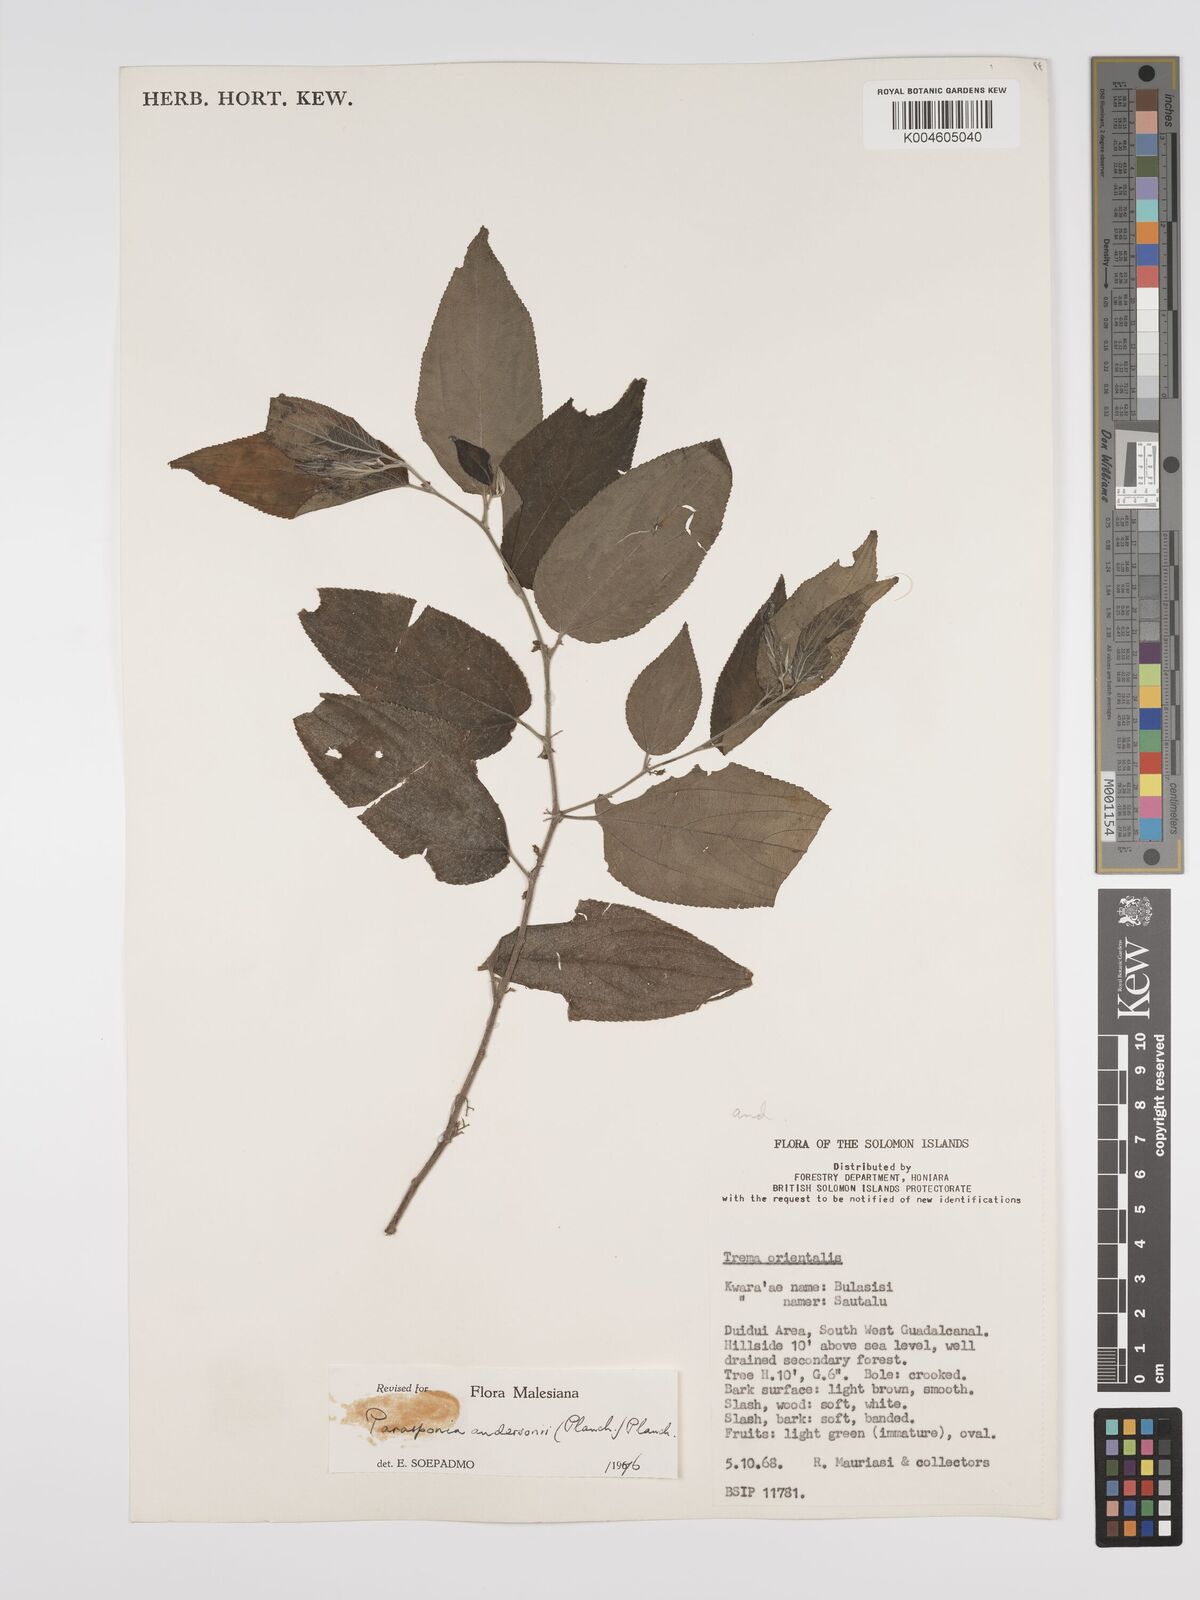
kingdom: Plantae
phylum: Tracheophyta
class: Magnoliopsida
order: Rosales
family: Cannabaceae
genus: Trema
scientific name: Trema andersonii
